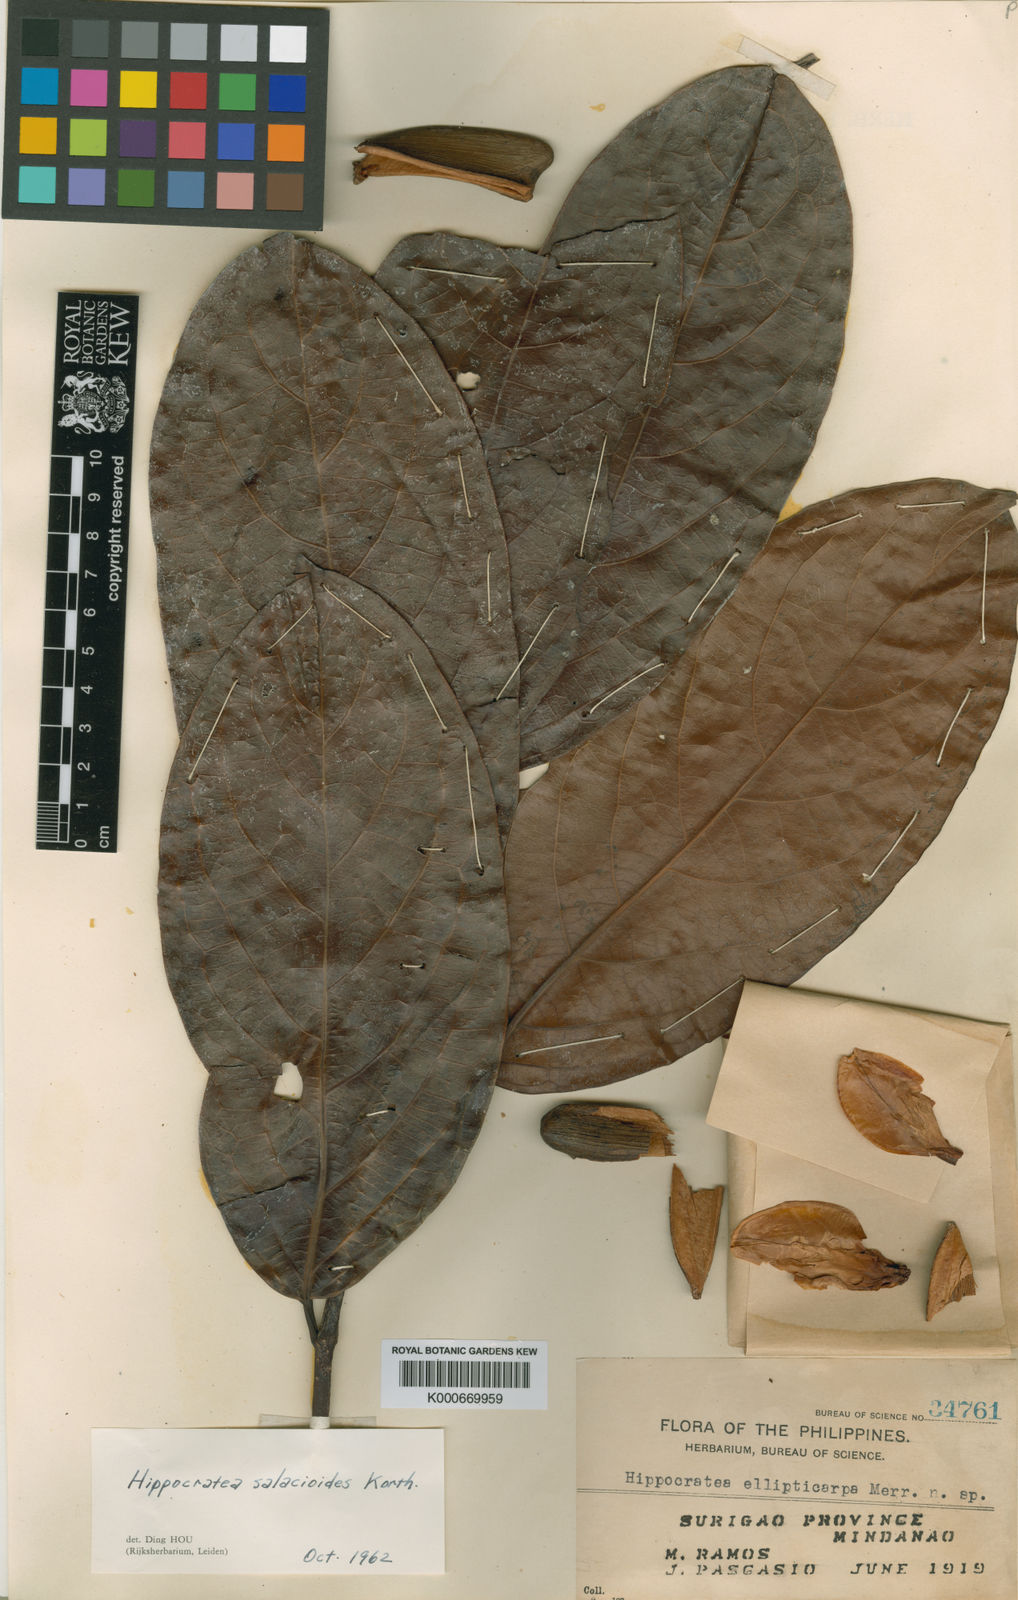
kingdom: Plantae
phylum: Tracheophyta
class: Magnoliopsida
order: Celastrales
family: Celastraceae
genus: Arnicratea
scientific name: Arnicratea grahamii
